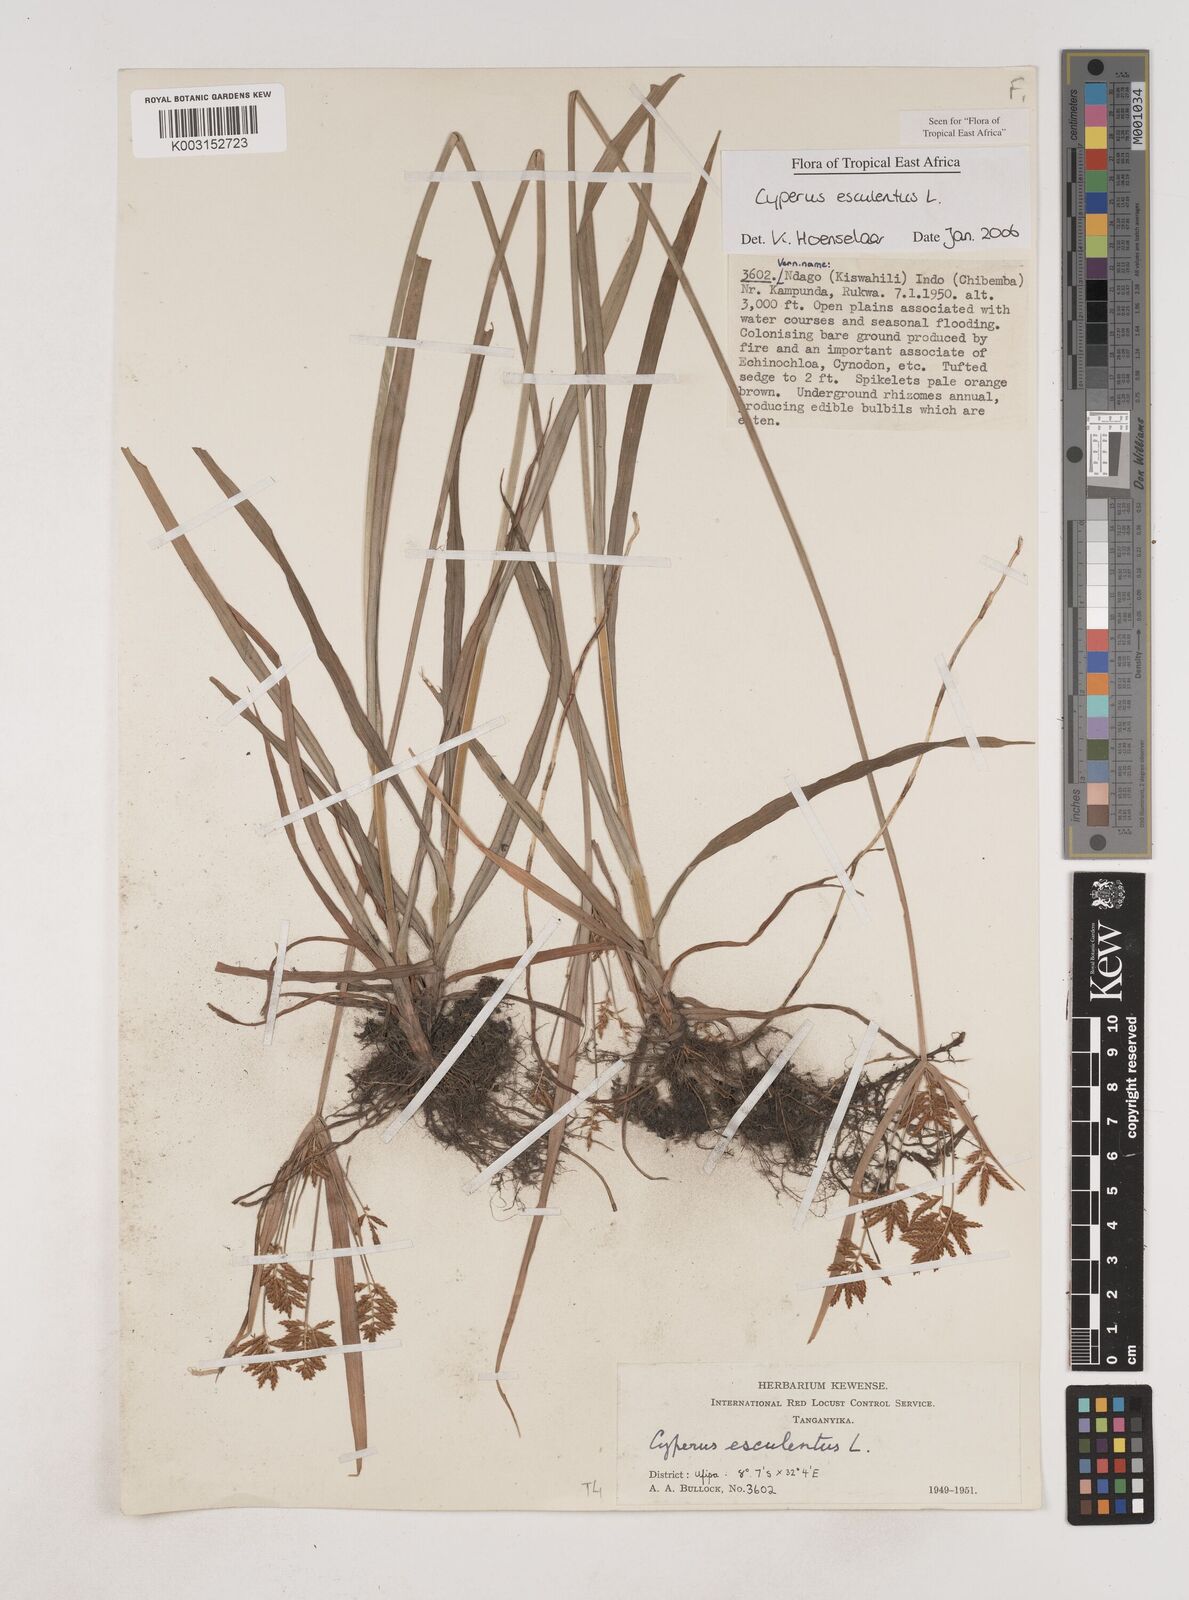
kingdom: Plantae
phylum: Tracheophyta
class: Liliopsida
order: Poales
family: Cyperaceae
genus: Cyperus
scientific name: Cyperus esculentus
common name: Yellow nutsedge
